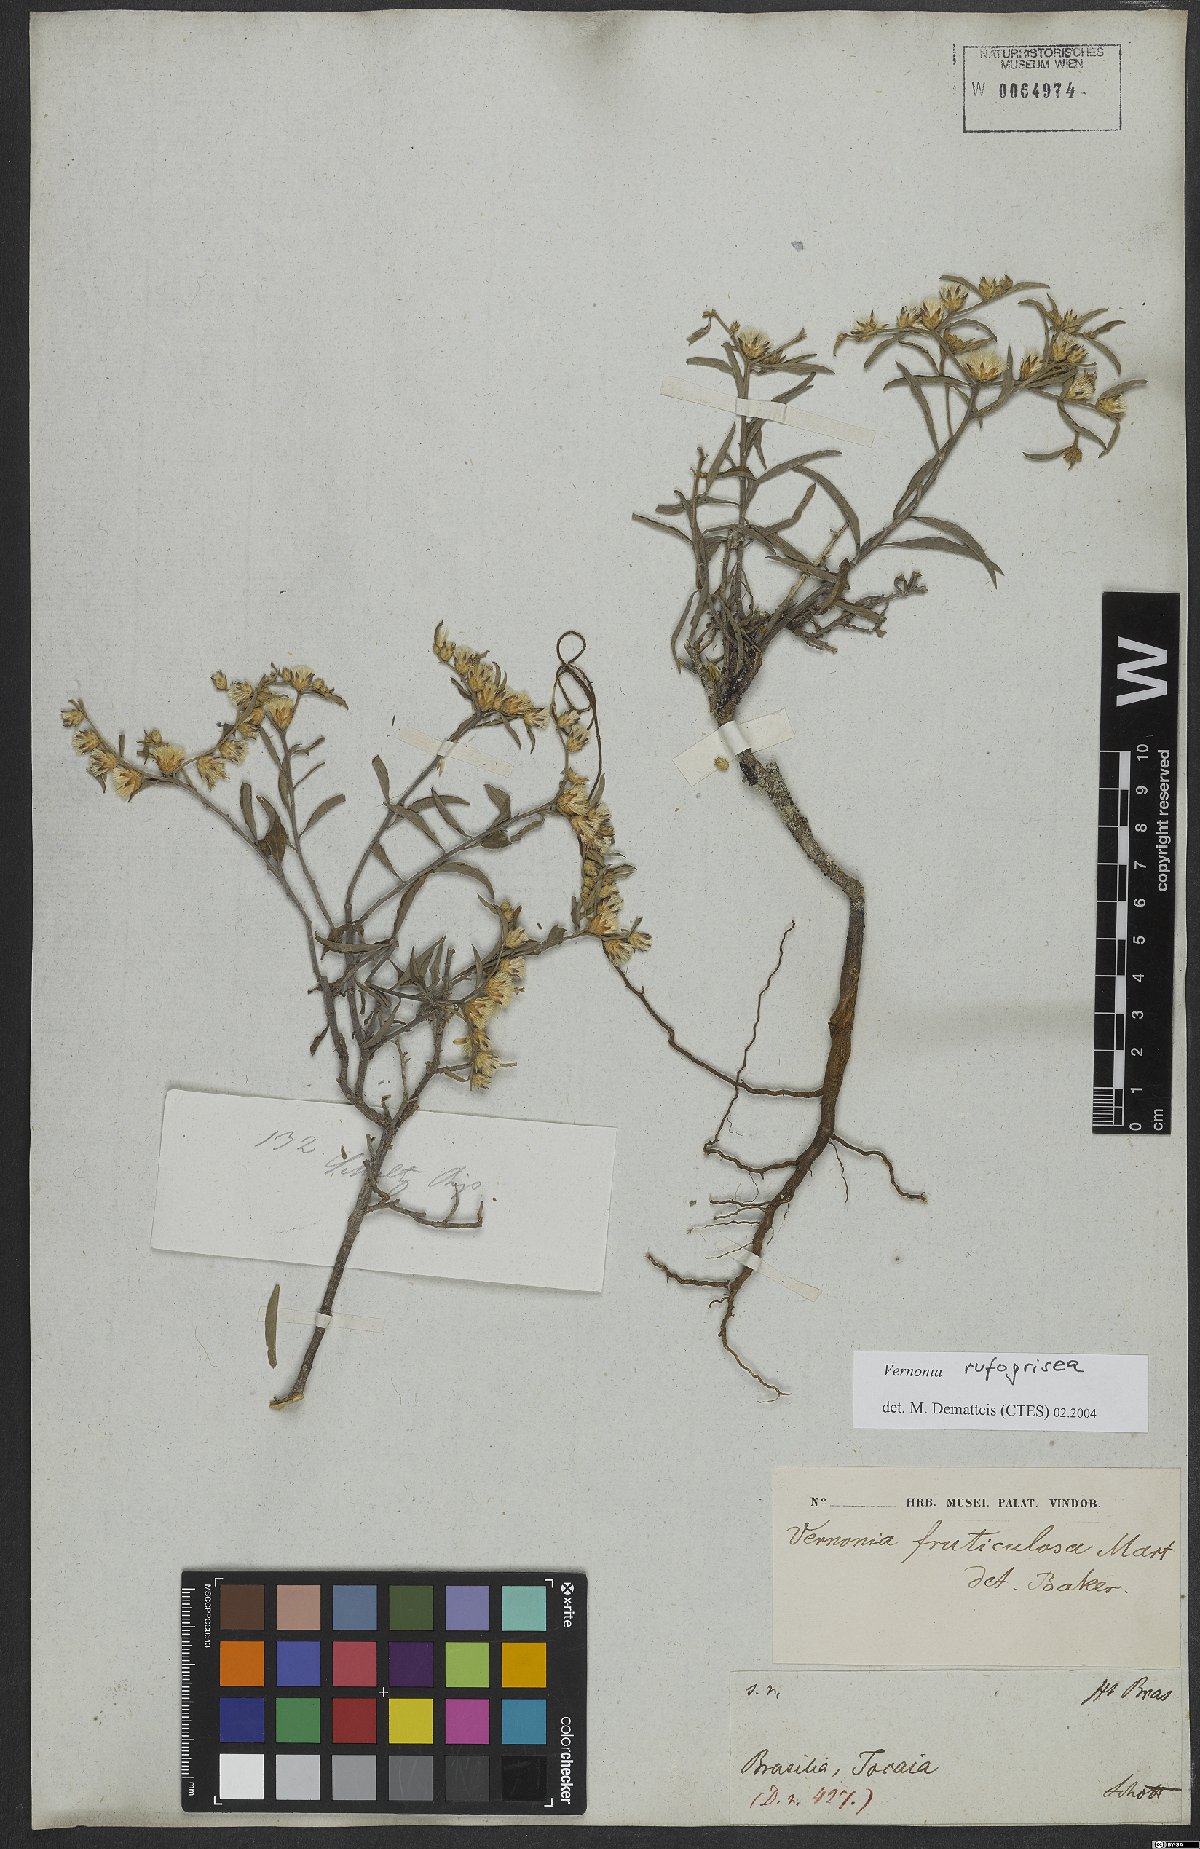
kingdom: Plantae
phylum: Tracheophyta
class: Magnoliopsida
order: Asterales
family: Asteraceae
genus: Lepidaploa
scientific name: Lepidaploa rufogrisea
